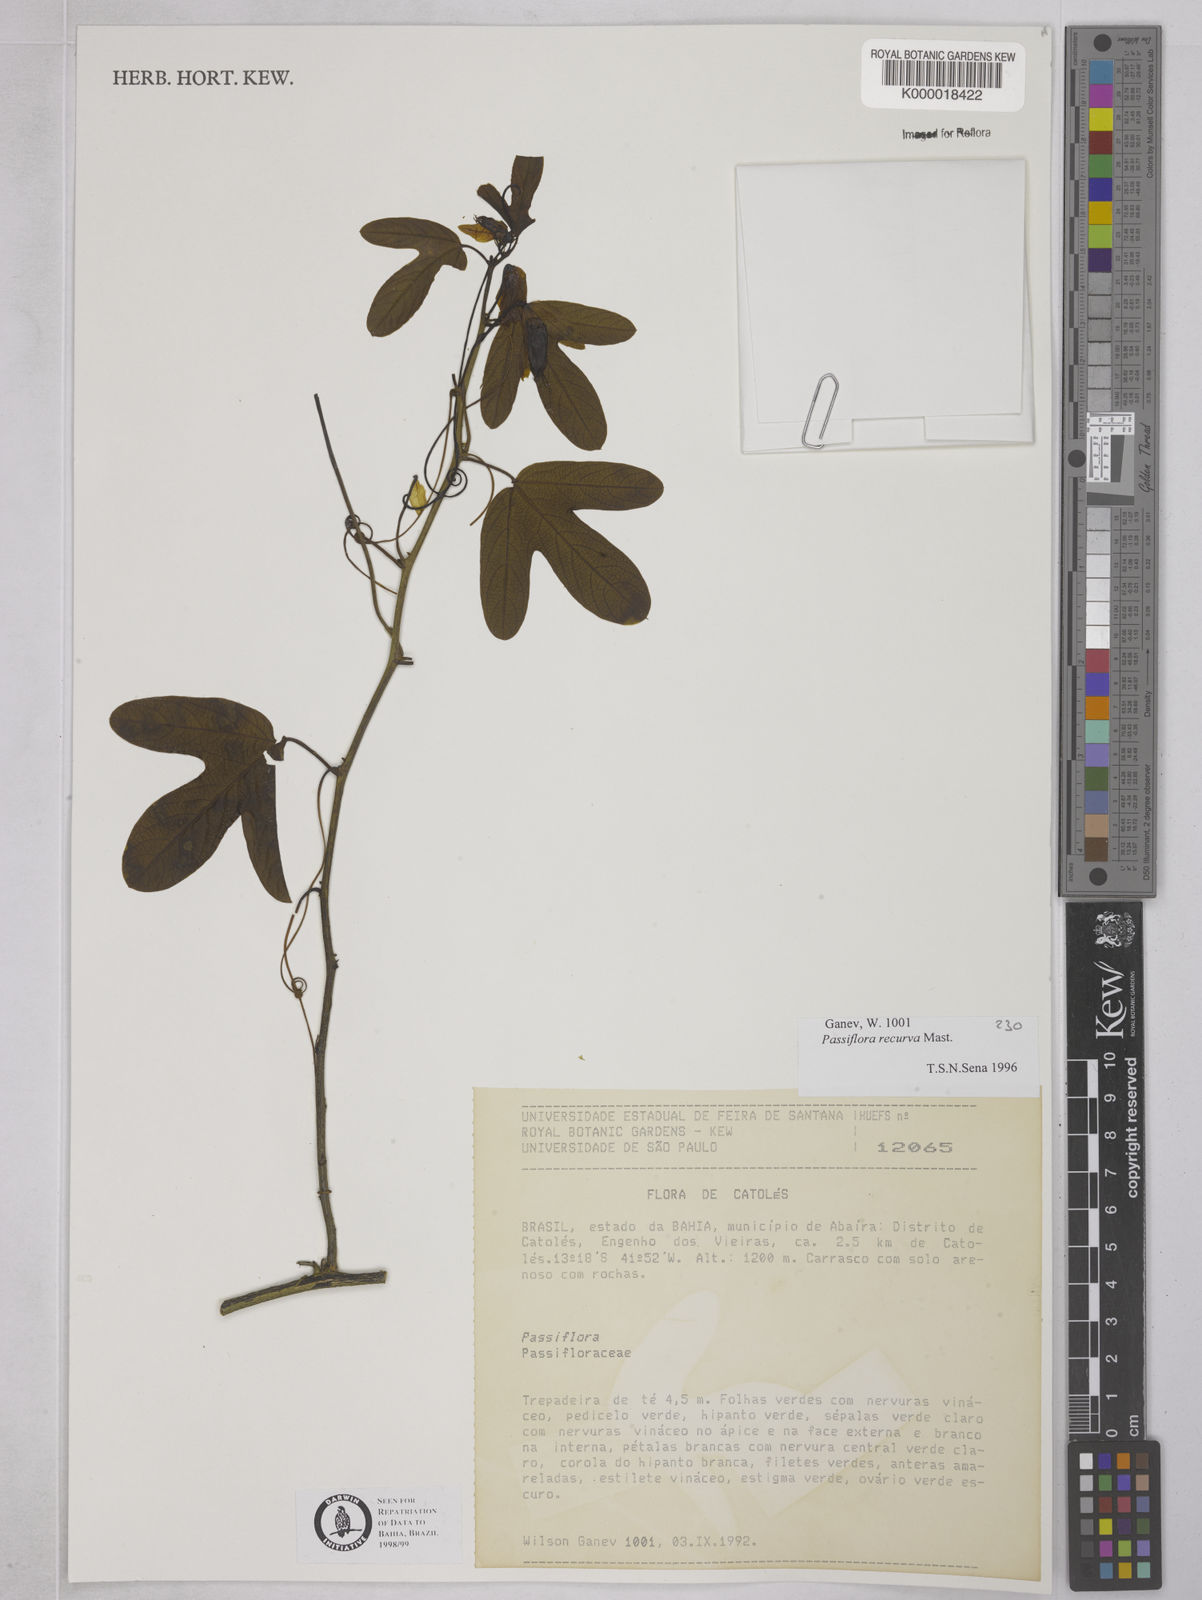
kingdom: Plantae
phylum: Tracheophyta
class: Magnoliopsida
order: Malpighiales
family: Passifloraceae
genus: Passiflora
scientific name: Passiflora recurva
